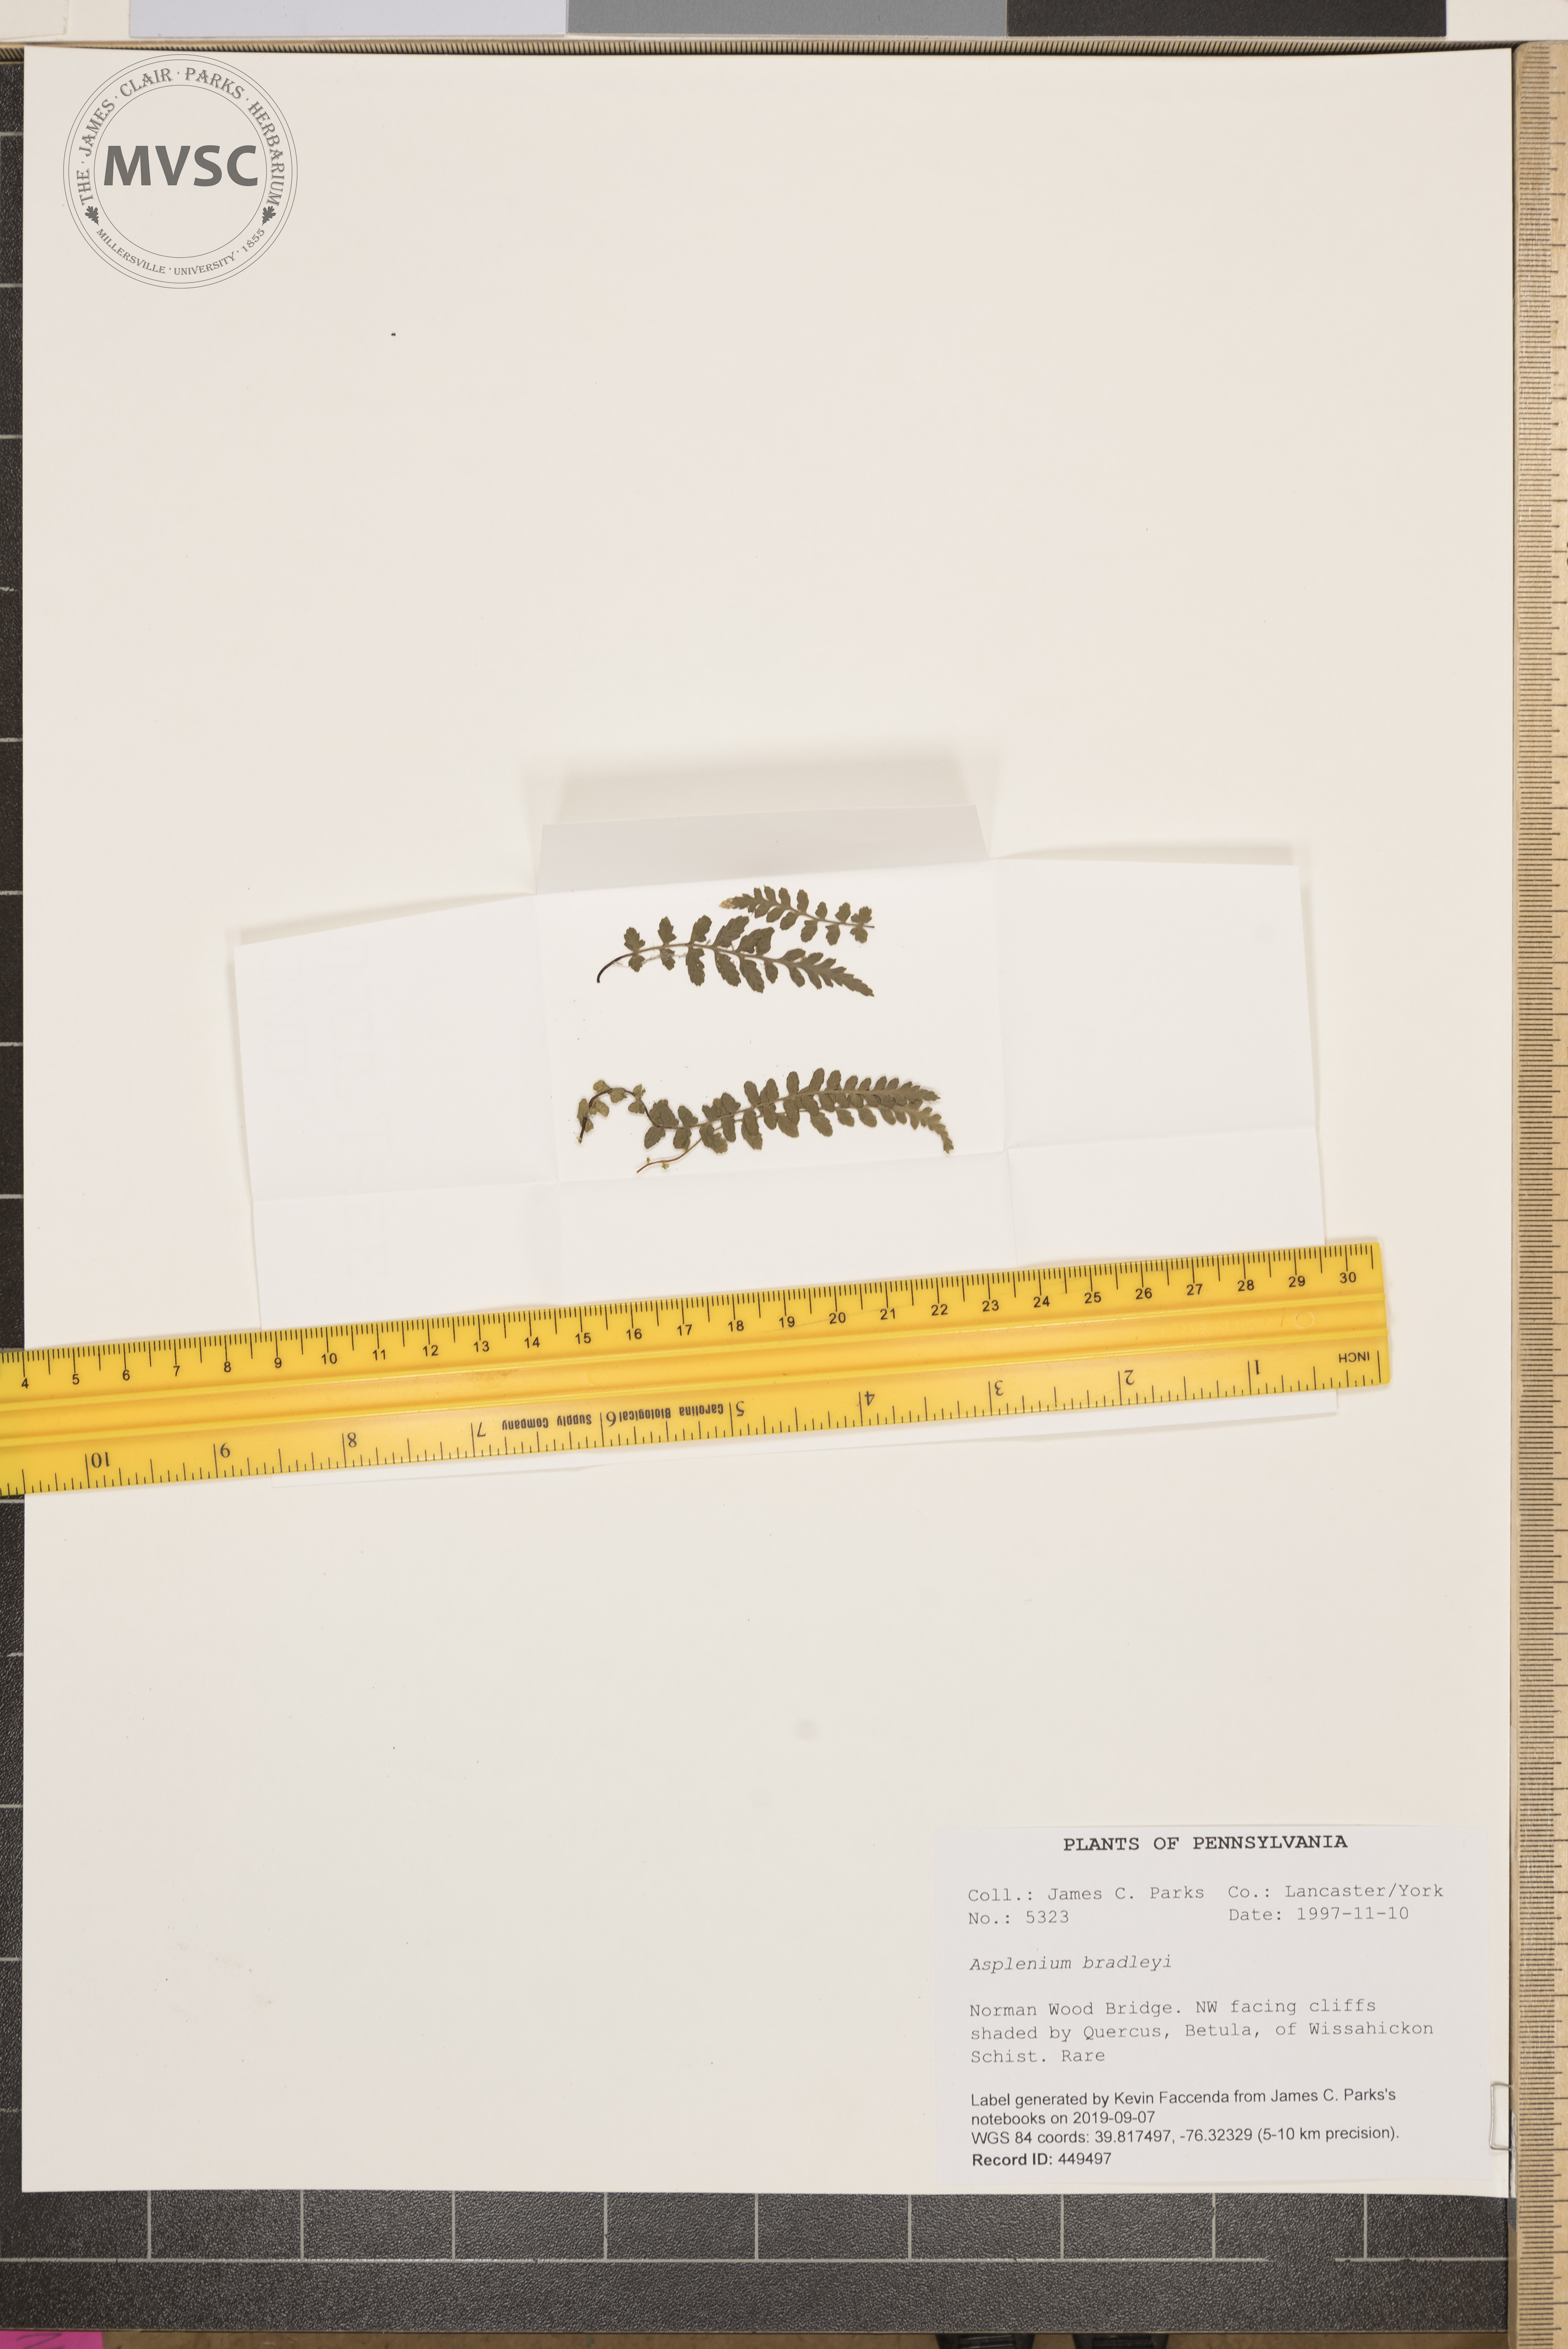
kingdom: Plantae
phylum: Tracheophyta
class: Polypodiopsida
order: Polypodiales
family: Aspleniaceae
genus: Asplenium
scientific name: Asplenium bradleyi
